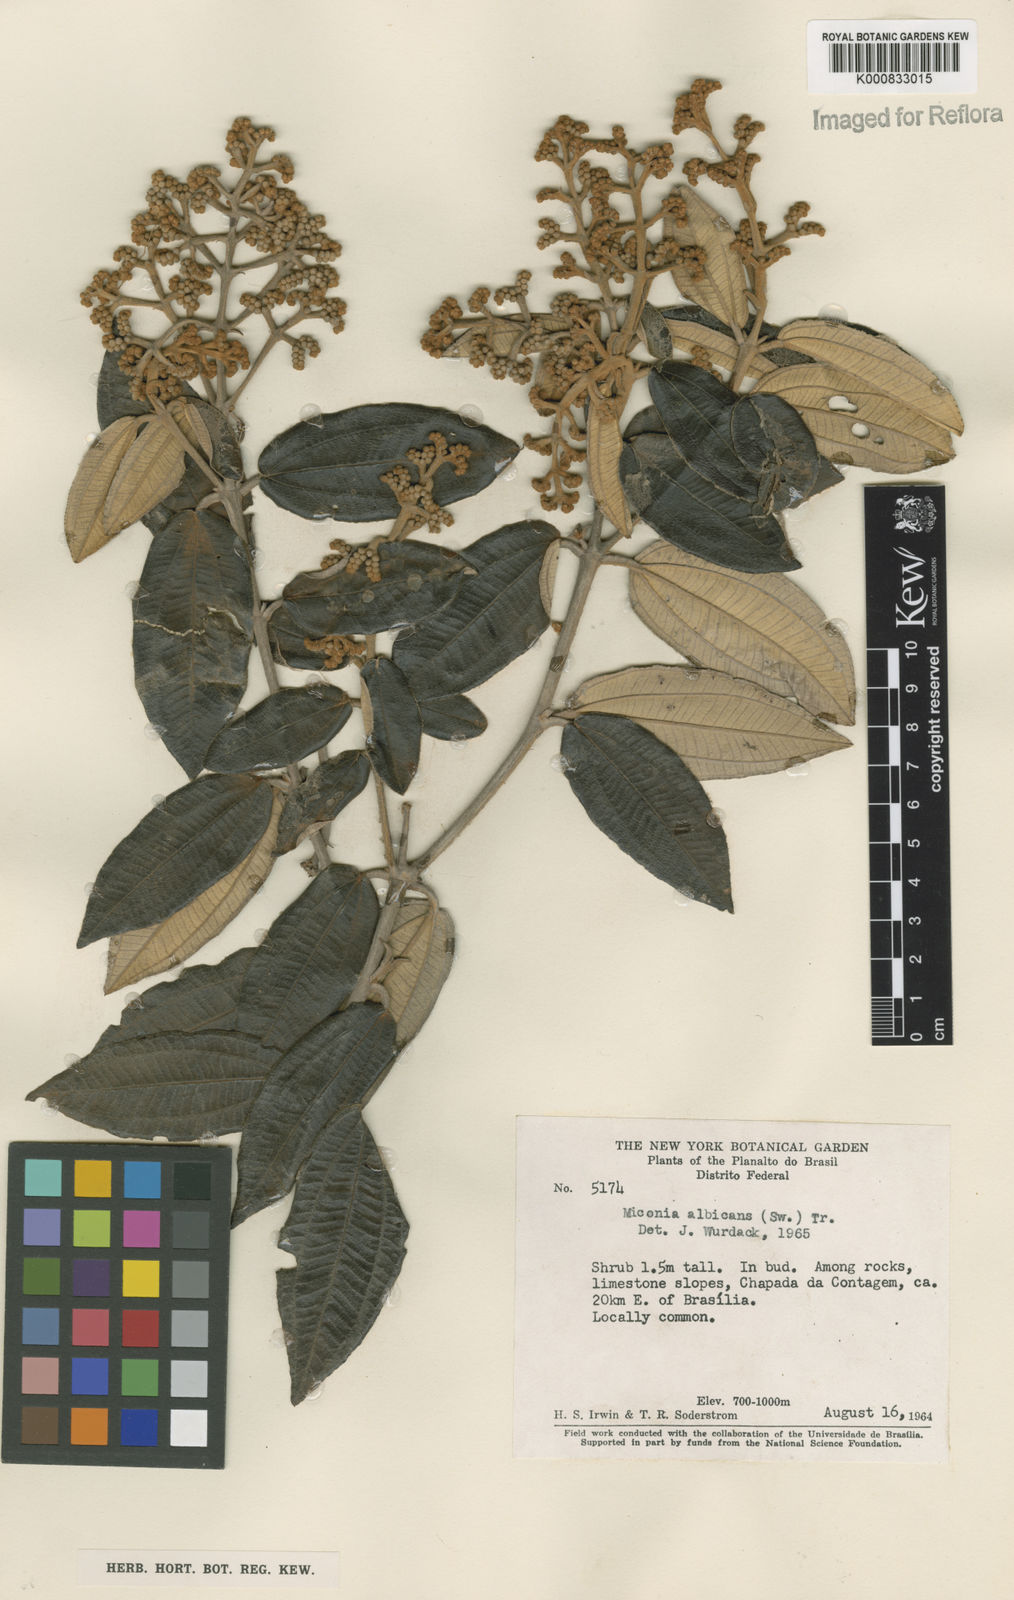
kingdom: Plantae
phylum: Tracheophyta
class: Magnoliopsida
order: Myrtales
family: Melastomataceae
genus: Miconia
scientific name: Miconia albicans
